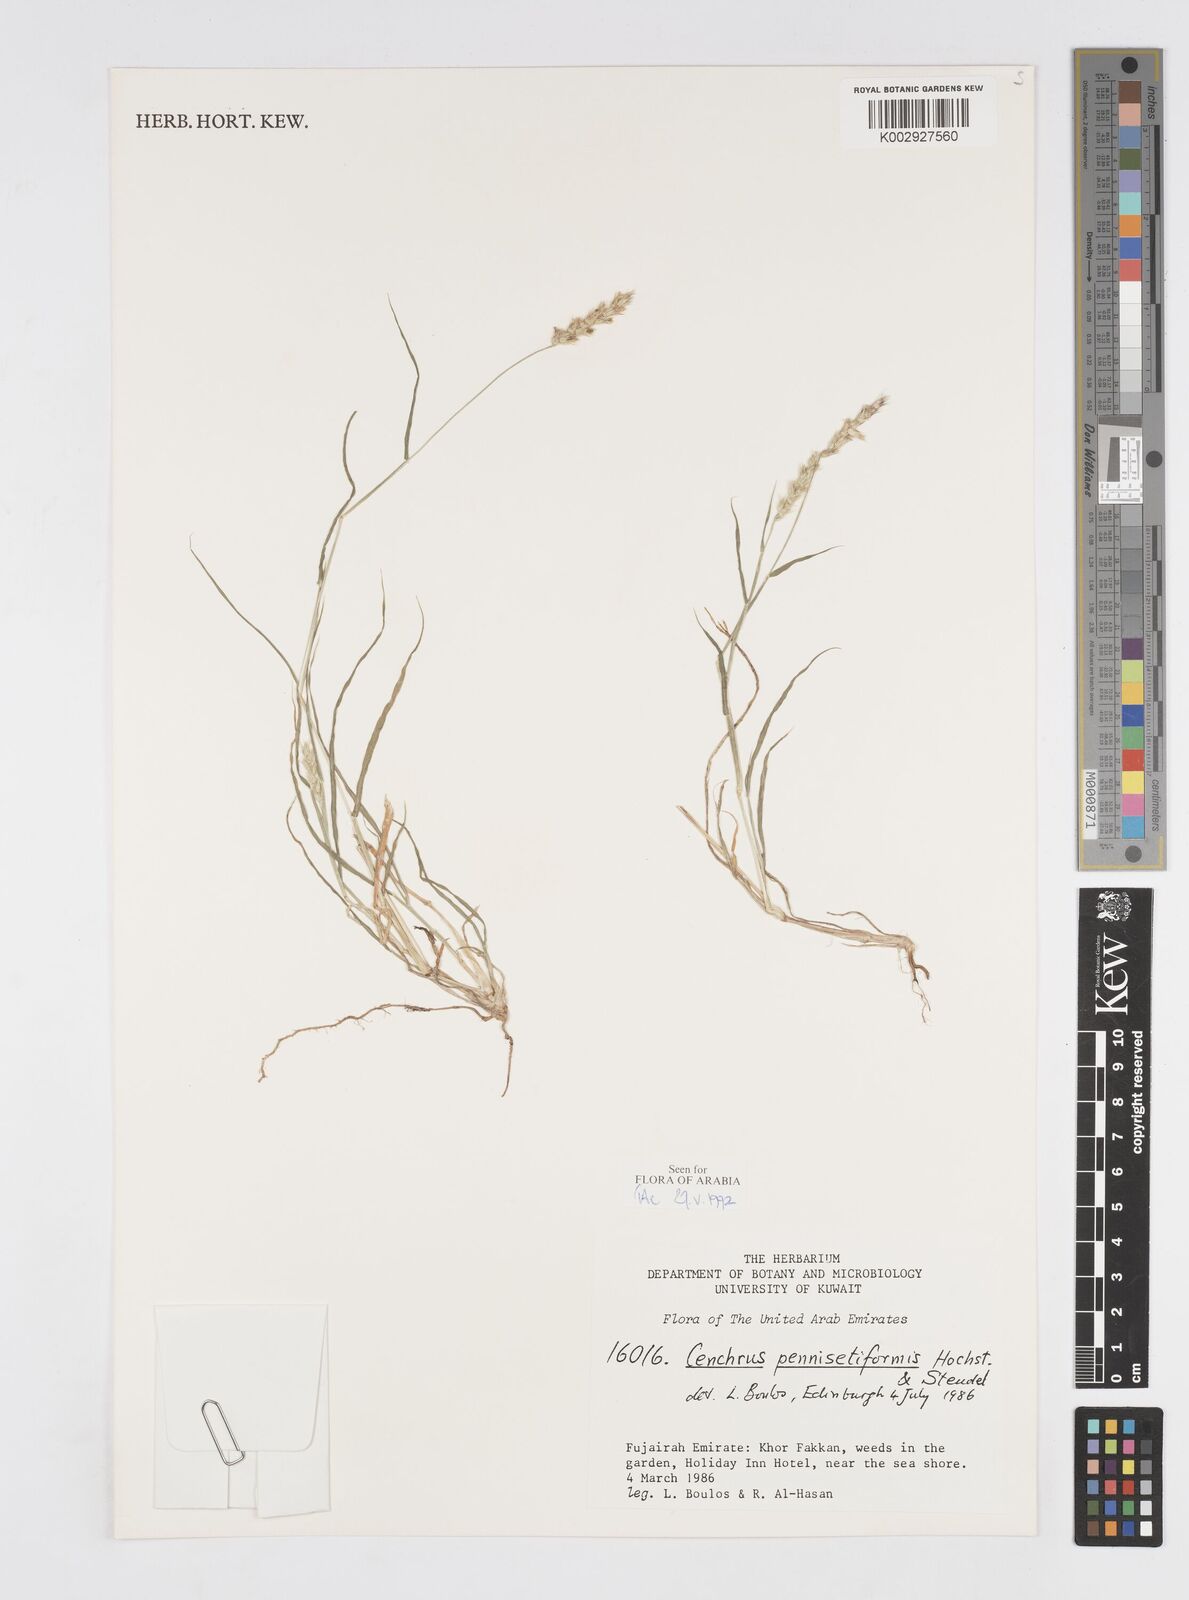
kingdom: Plantae
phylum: Tracheophyta
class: Liliopsida
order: Poales
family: Poaceae
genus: Cenchrus
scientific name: Cenchrus pennisetiformis
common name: Cloncurry
